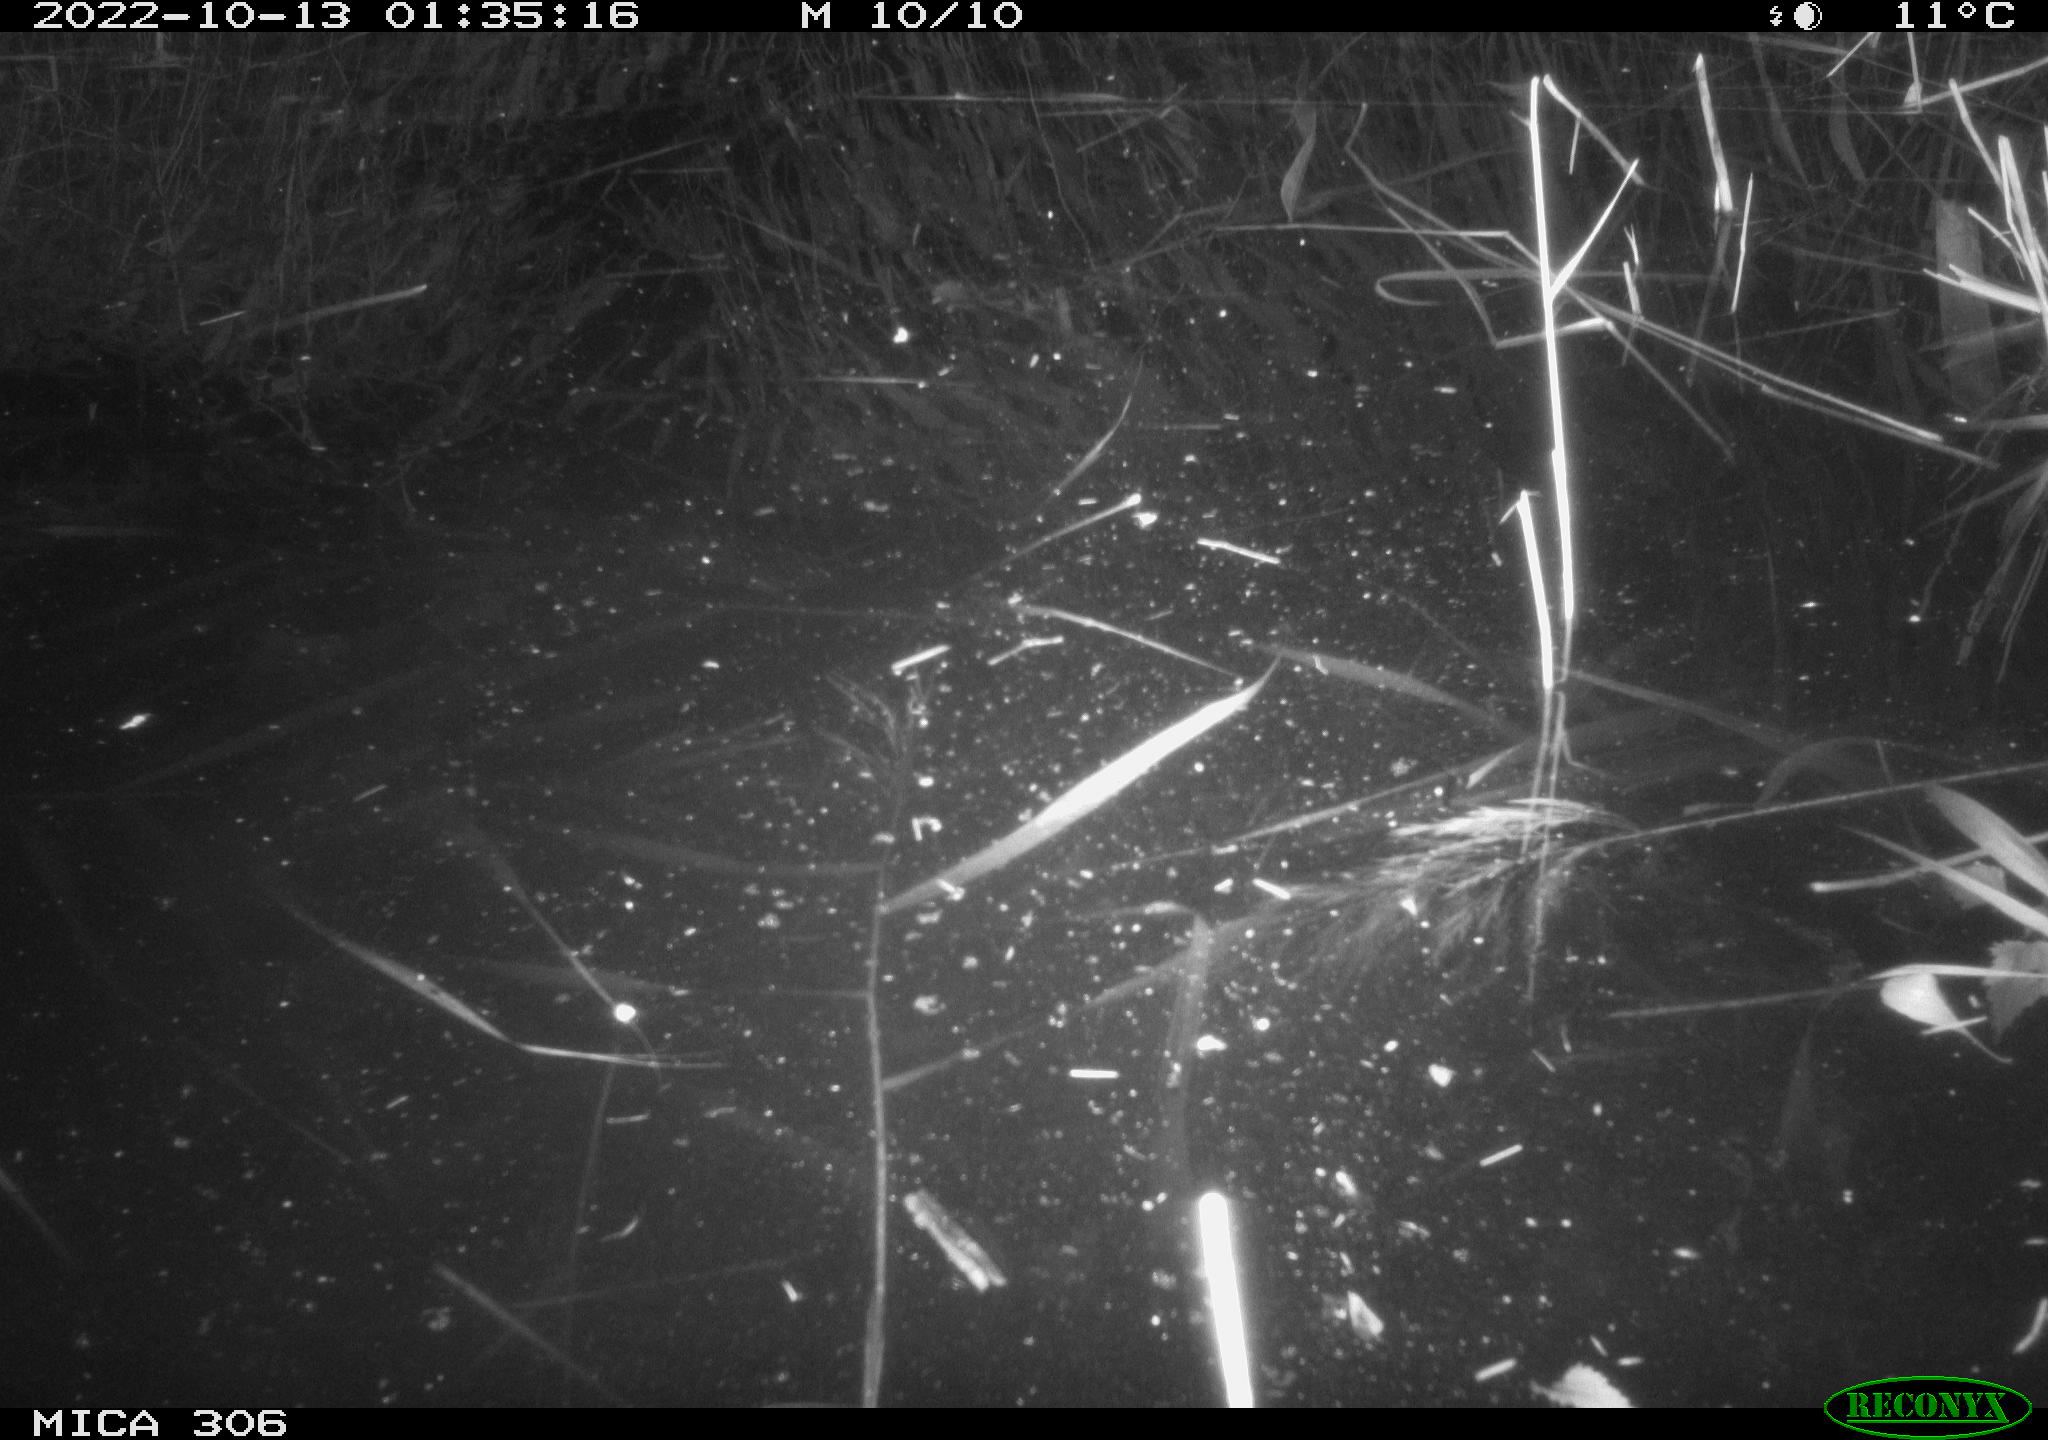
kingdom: Animalia
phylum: Chordata
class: Mammalia
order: Rodentia
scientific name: Rodentia
